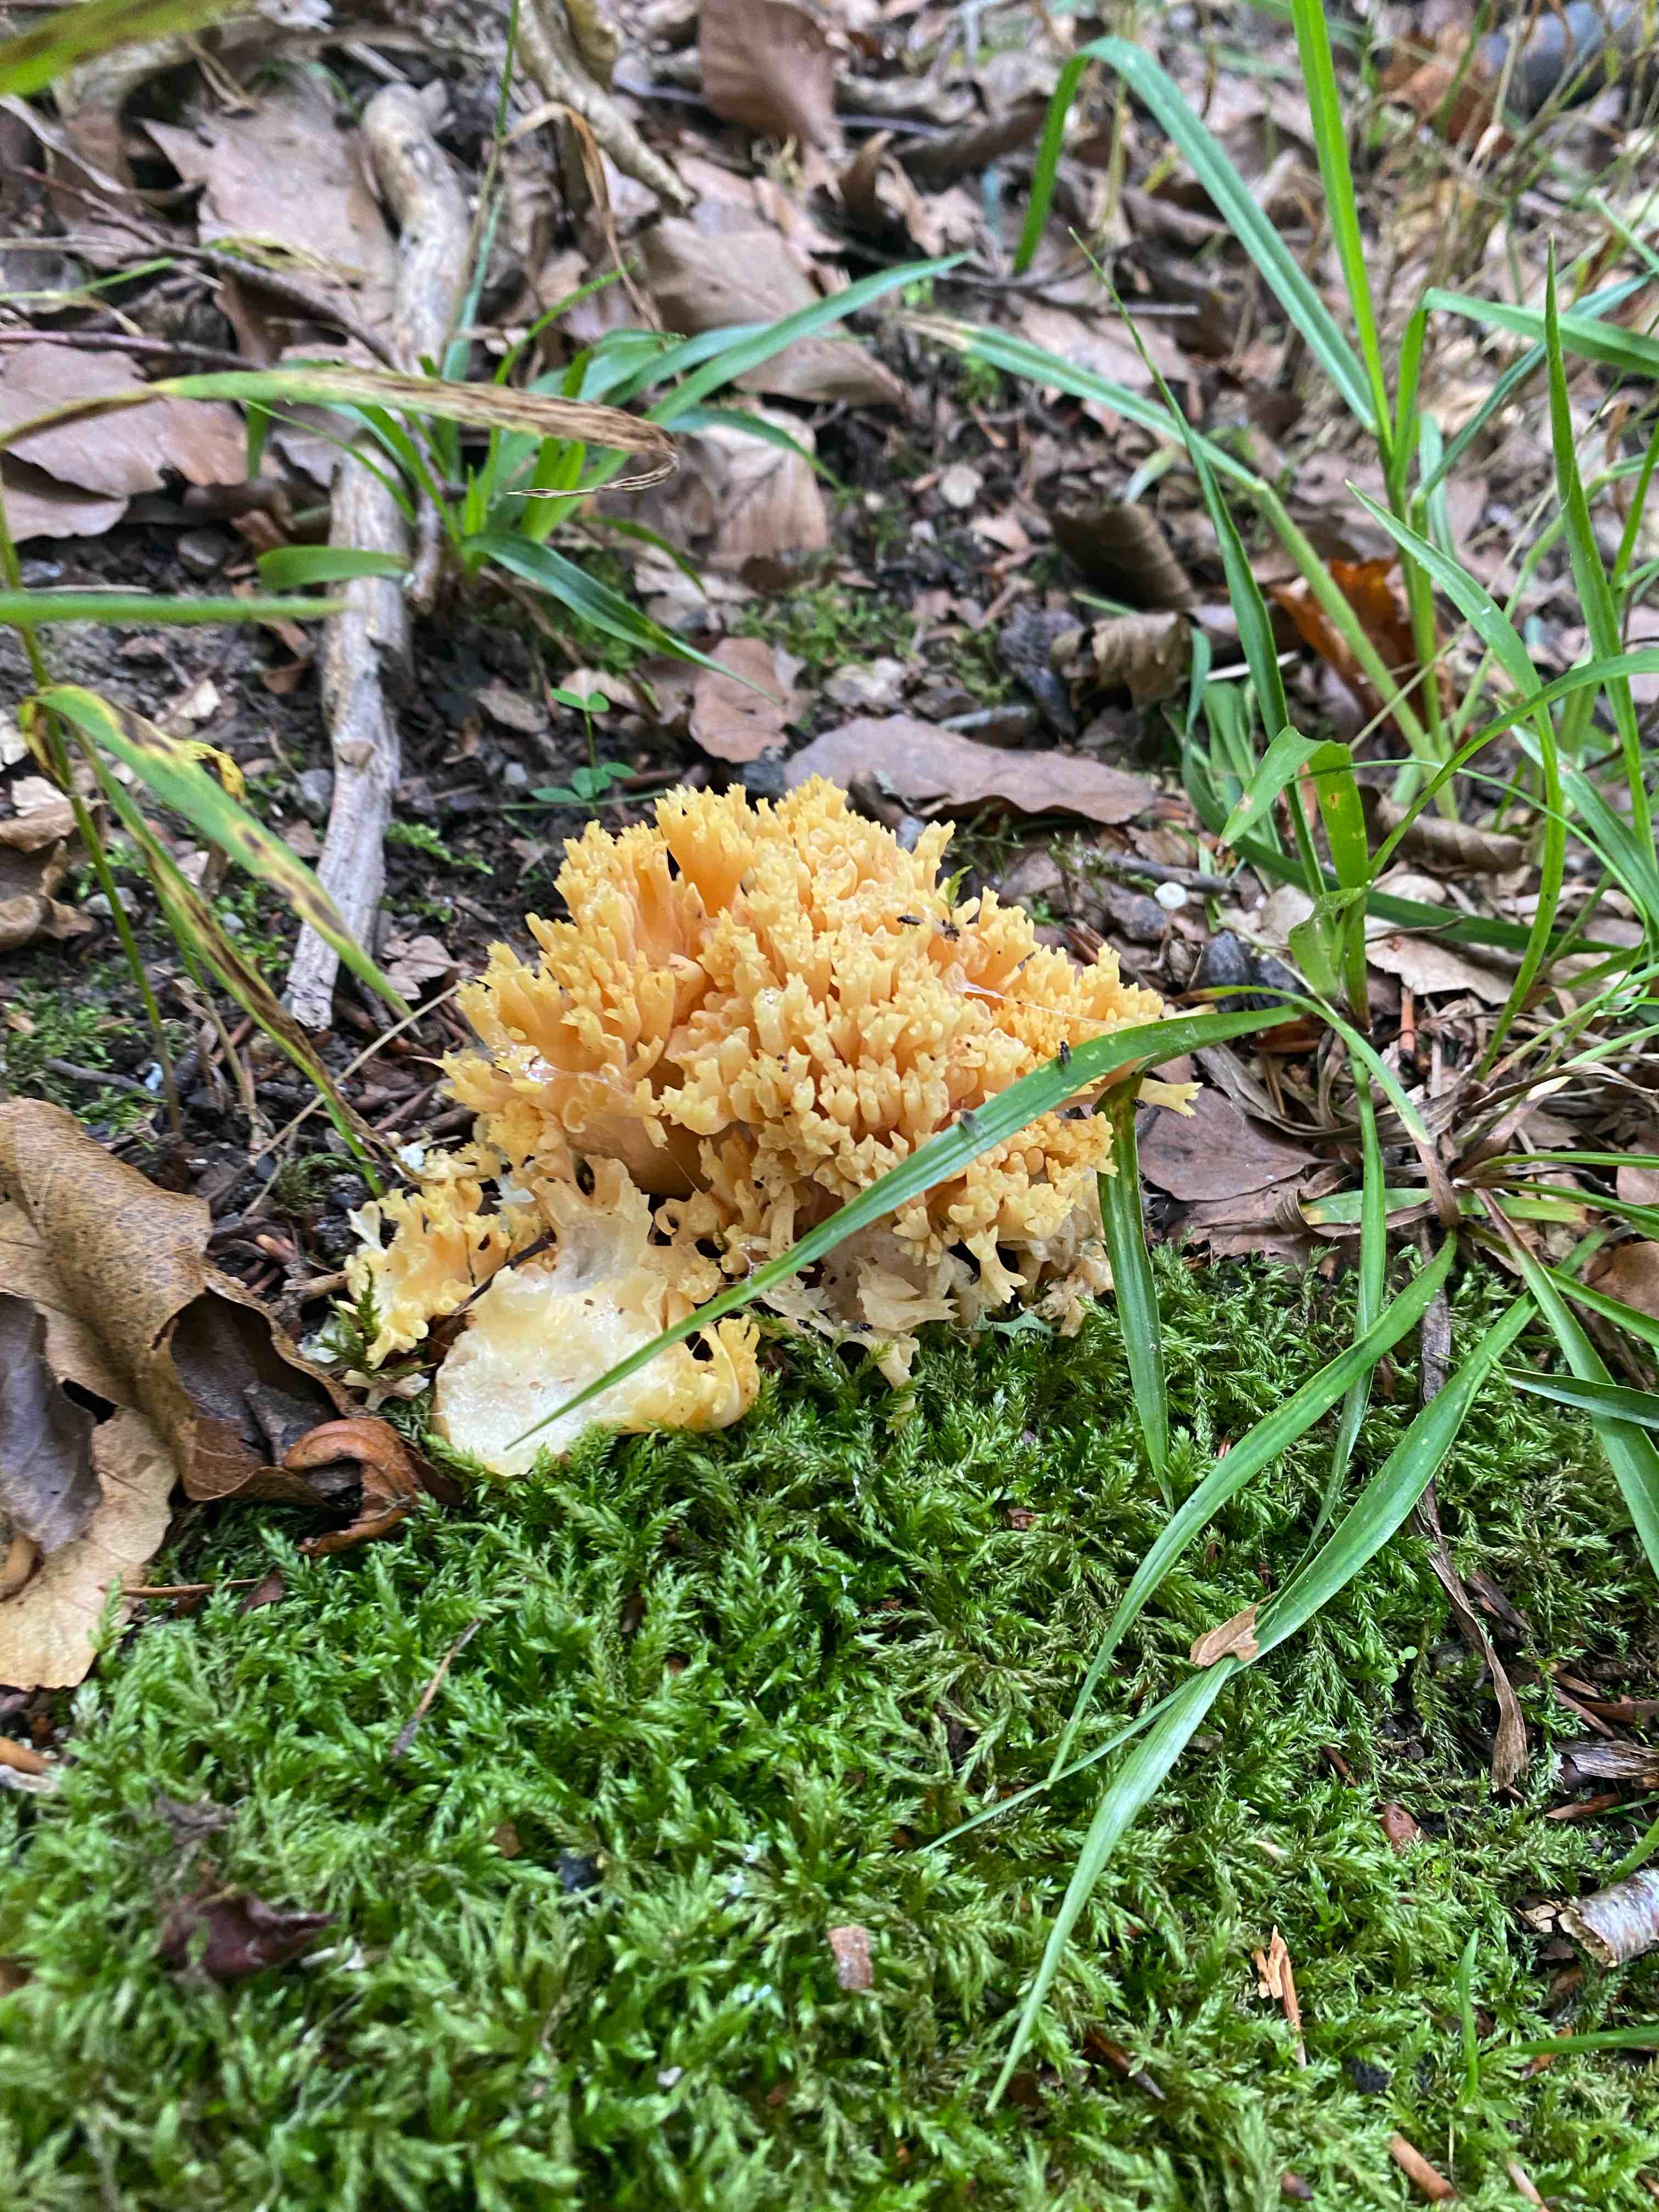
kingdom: Fungi
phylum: Basidiomycota
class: Agaricomycetes
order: Gomphales
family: Gomphaceae
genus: Ramaria
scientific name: Ramaria
